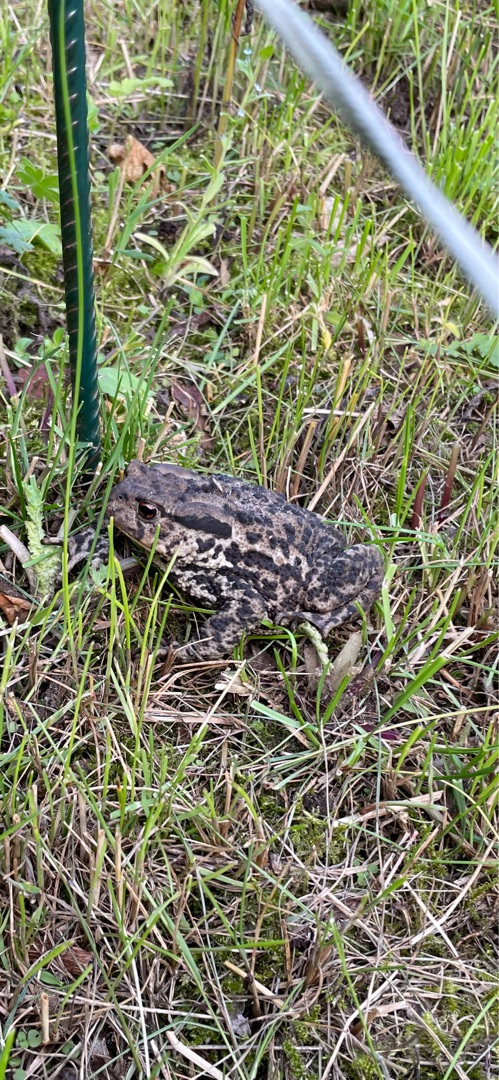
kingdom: Animalia
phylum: Chordata
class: Amphibia
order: Anura
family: Bufonidae
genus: Bufo
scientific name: Bufo bufo
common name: Skrubtudse
